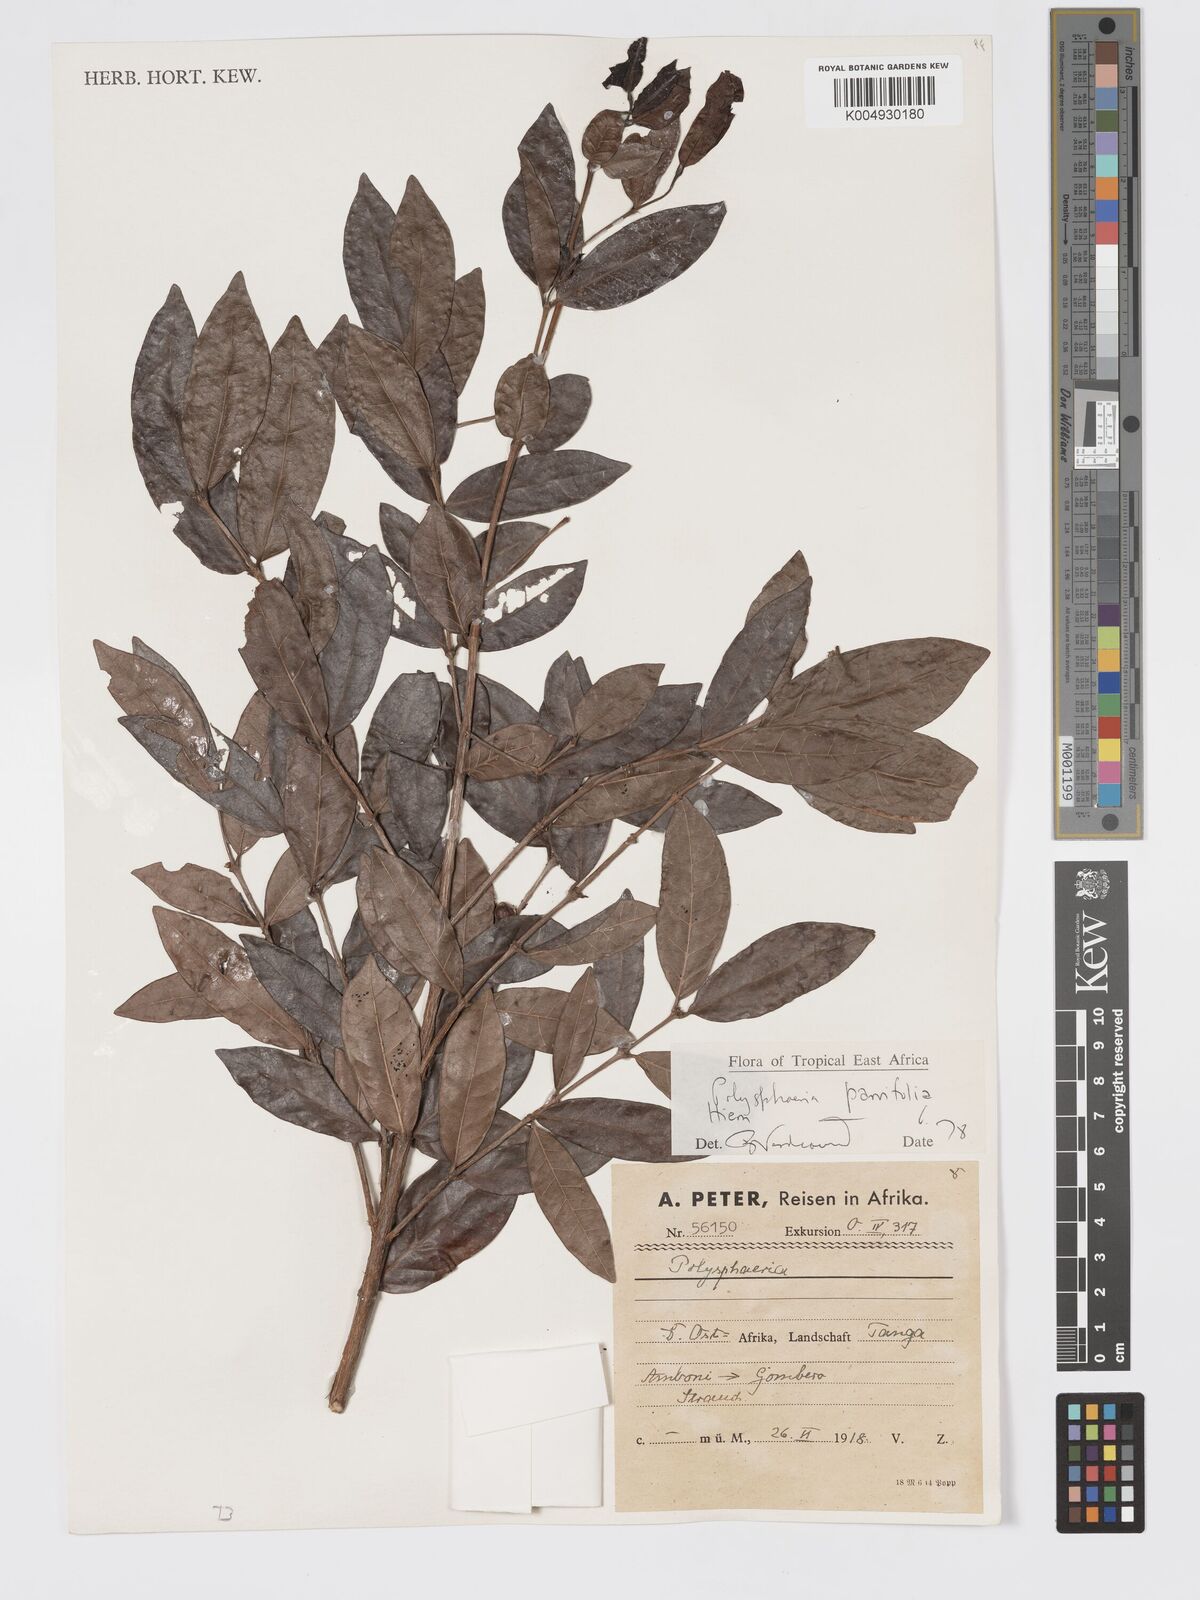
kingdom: Plantae
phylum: Tracheophyta
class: Magnoliopsida
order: Gentianales
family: Rubiaceae
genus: Polysphaeria
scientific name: Polysphaeria parvifolia
